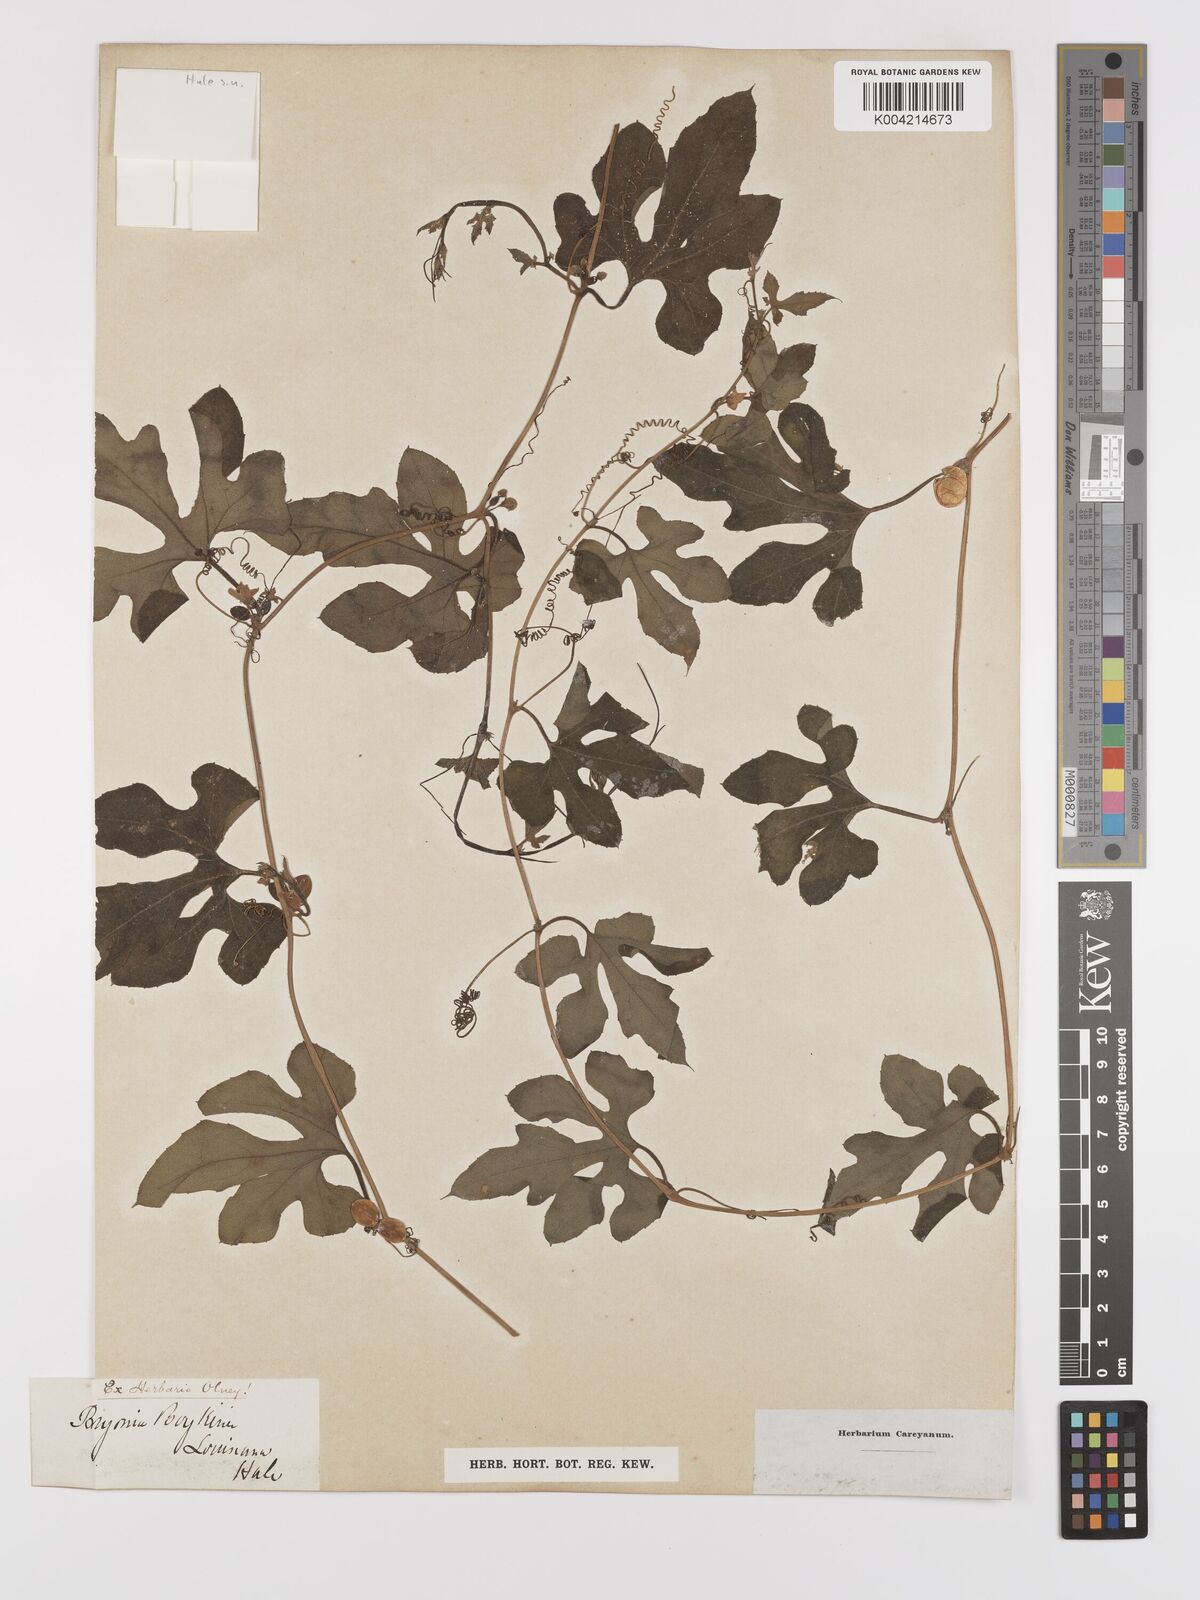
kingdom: Plantae
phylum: Tracheophyta
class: Magnoliopsida
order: Cucurbitales
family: Cucurbitaceae
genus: Cayaponia
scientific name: Cayaponia quinqueloba
